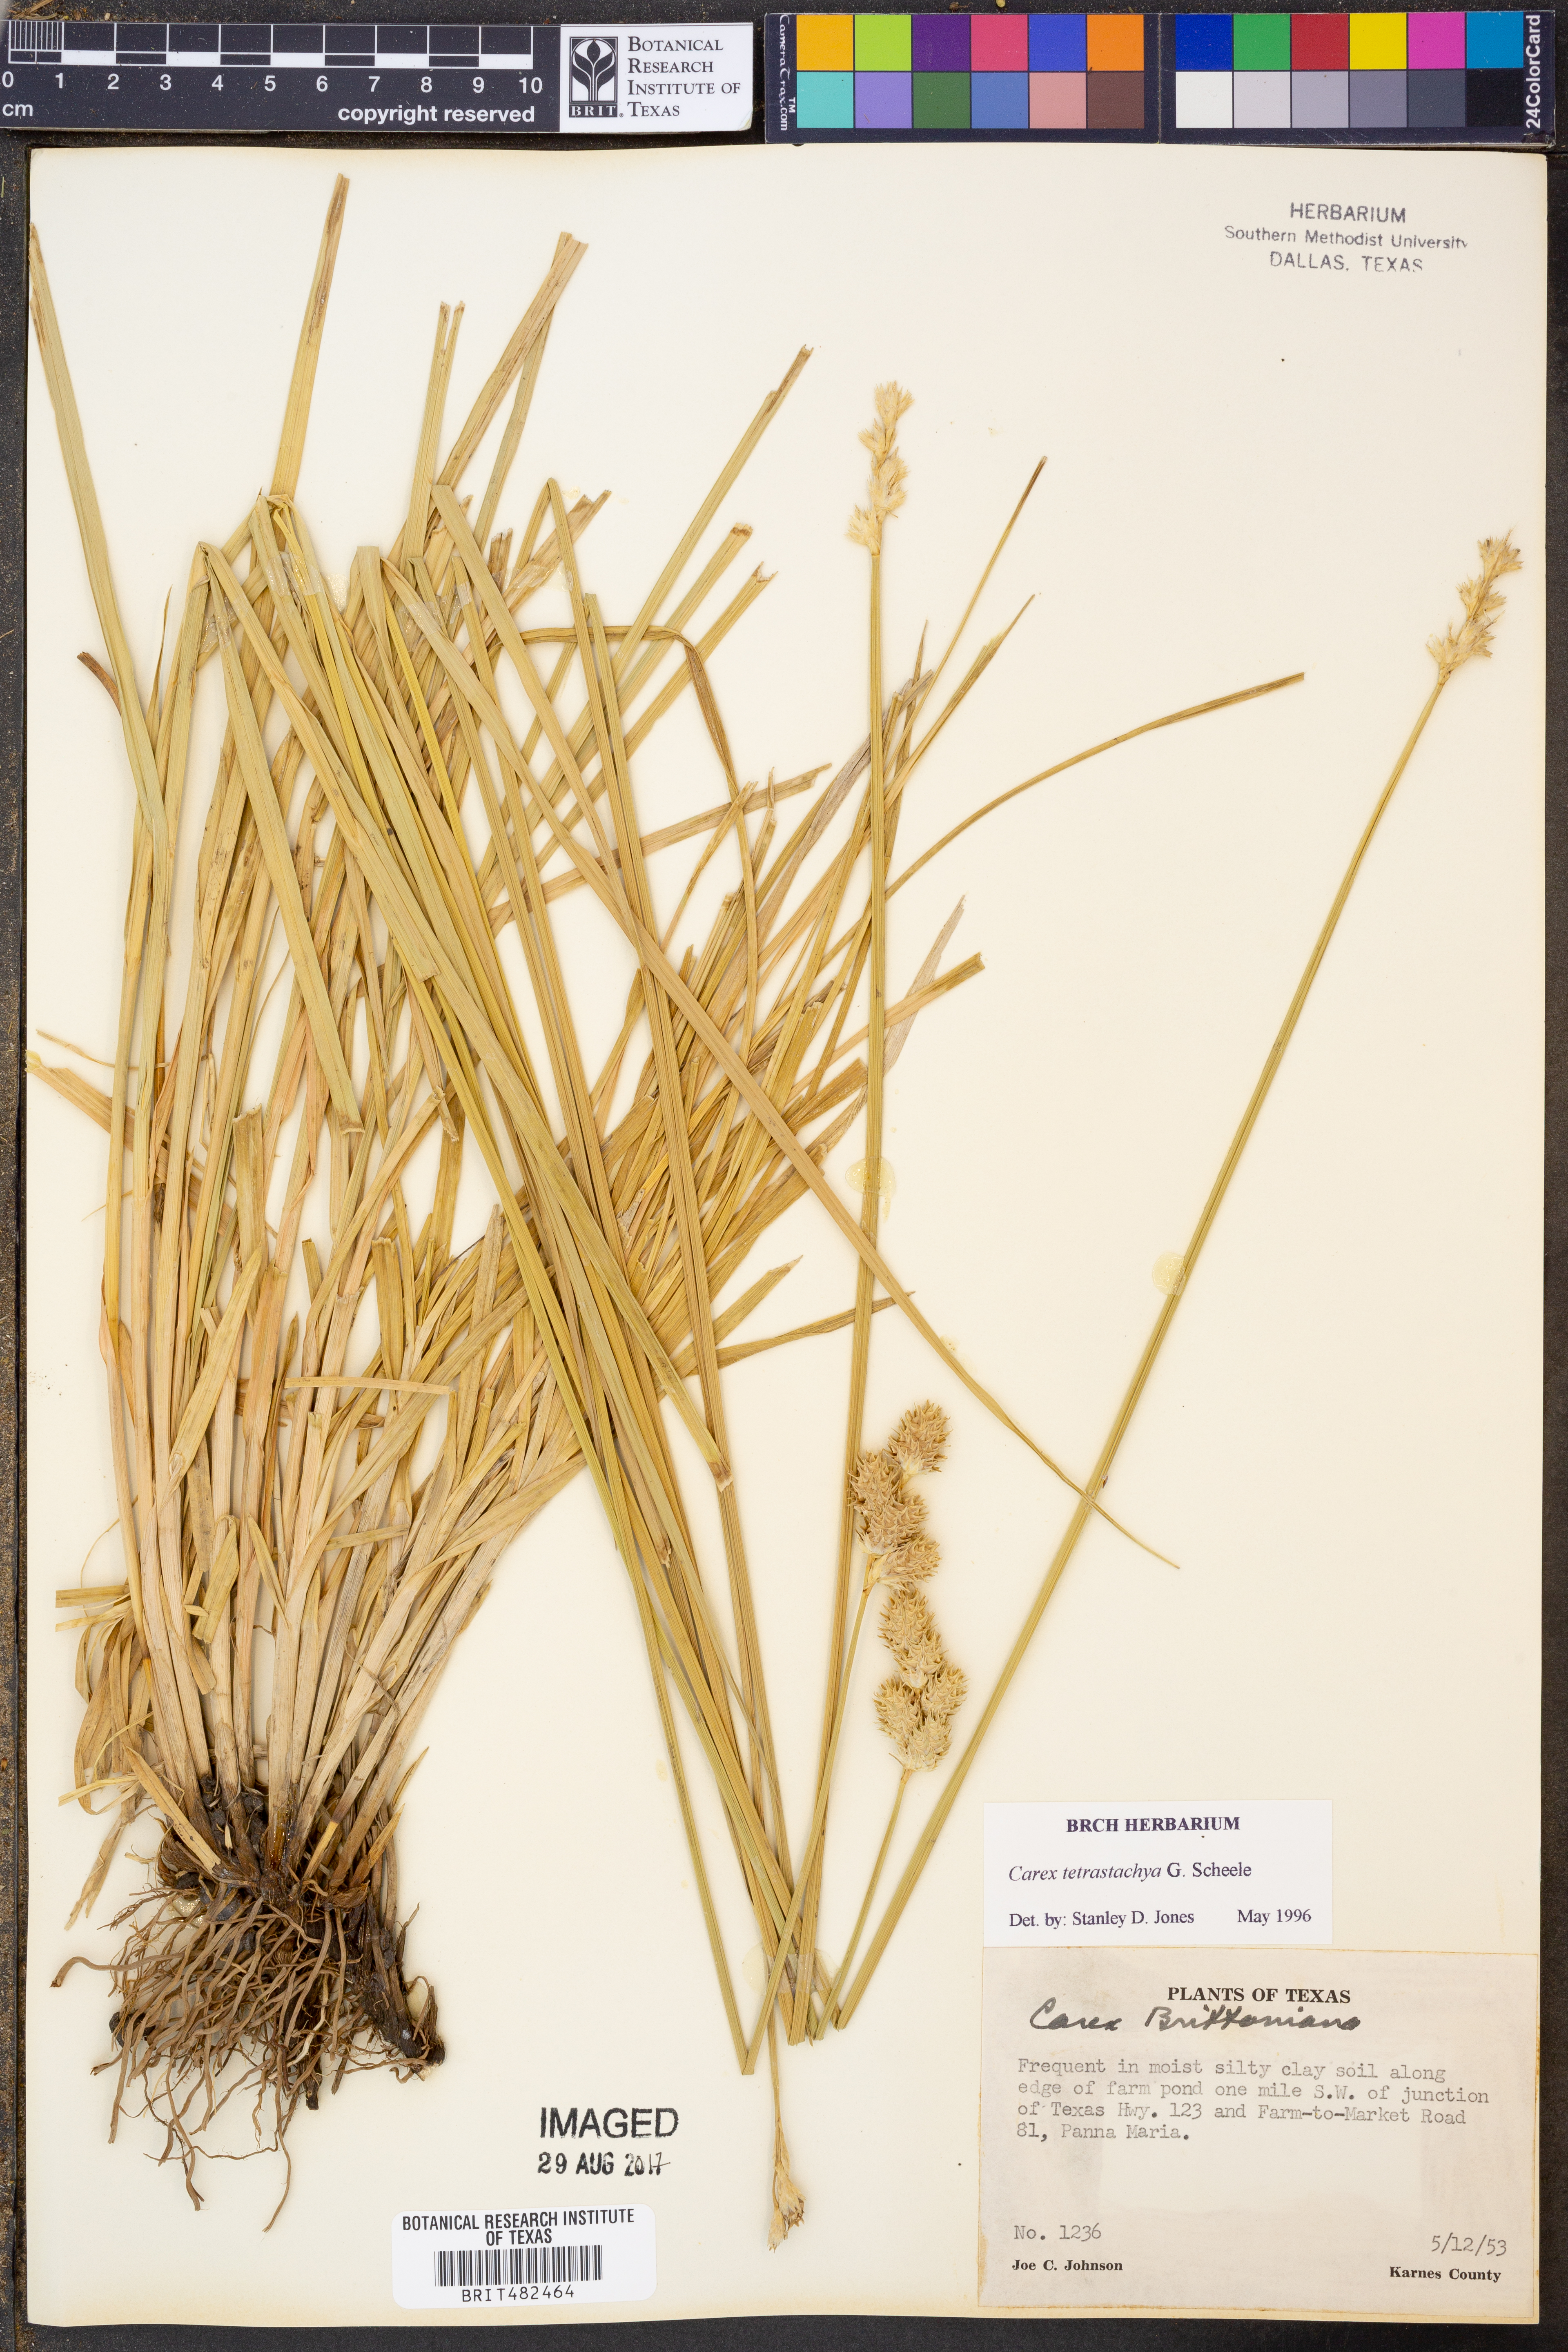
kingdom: Plantae
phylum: Tracheophyta
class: Liliopsida
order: Poales
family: Cyperaceae
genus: Carex
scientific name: Carex tetrastachya
